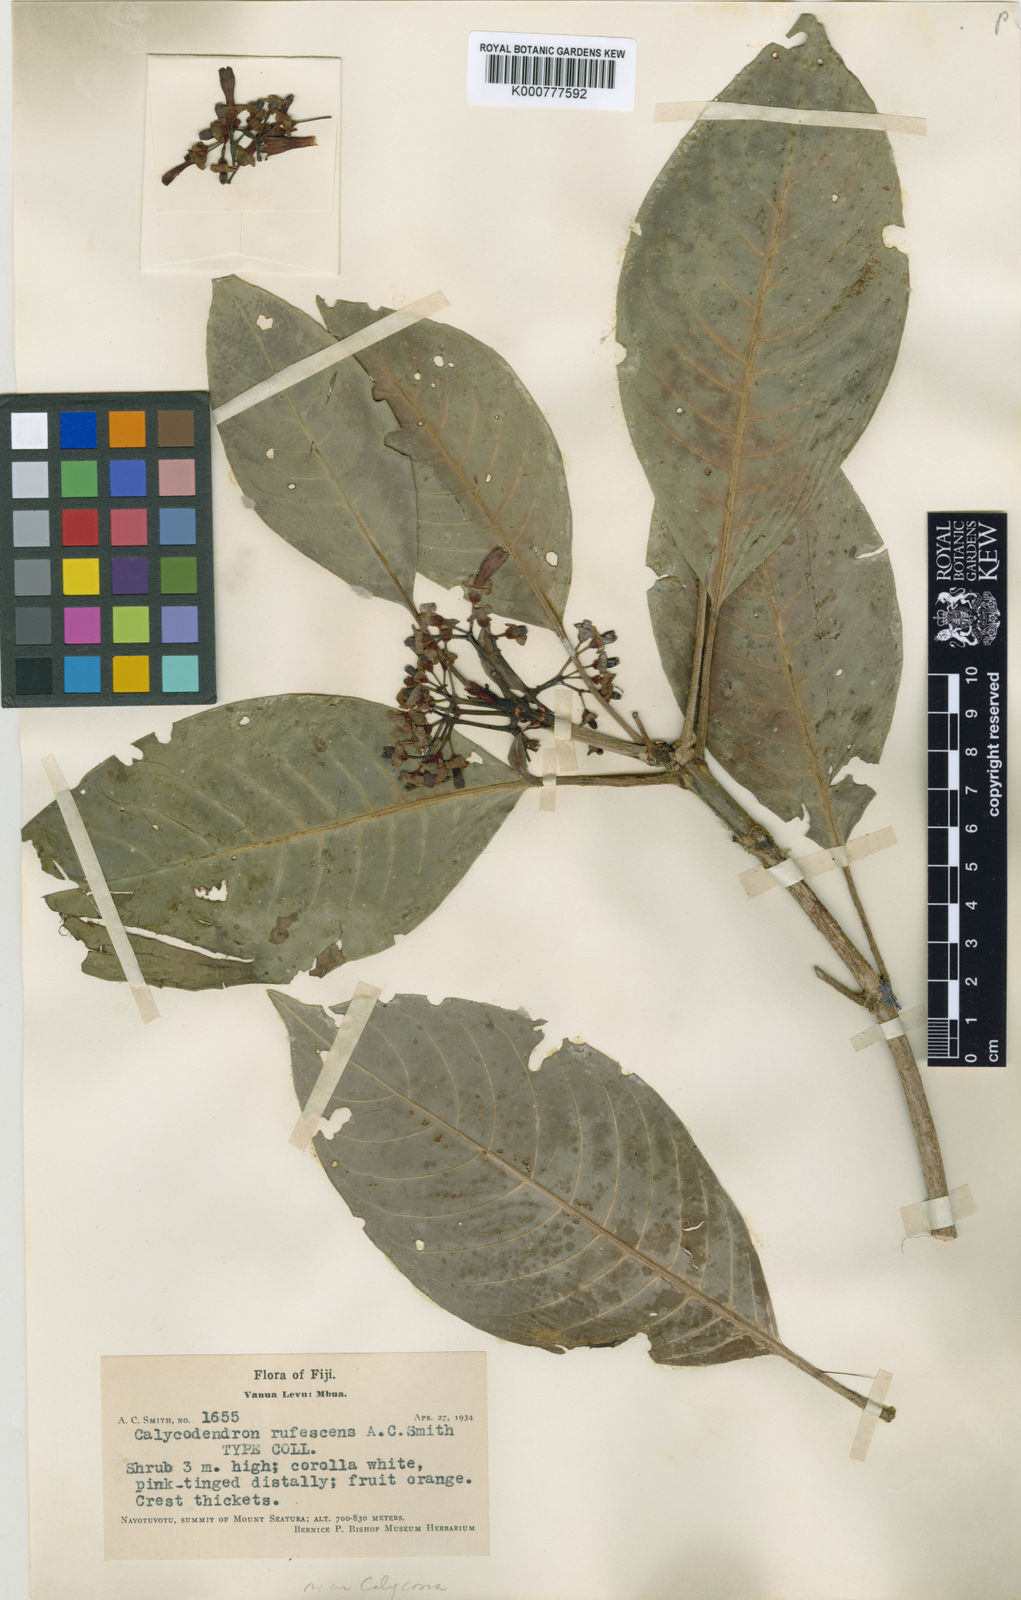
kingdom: Plantae
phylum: Tracheophyta
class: Magnoliopsida
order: Gentianales
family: Rubiaceae
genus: Psychotria
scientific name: Psychotria rufocalyx
